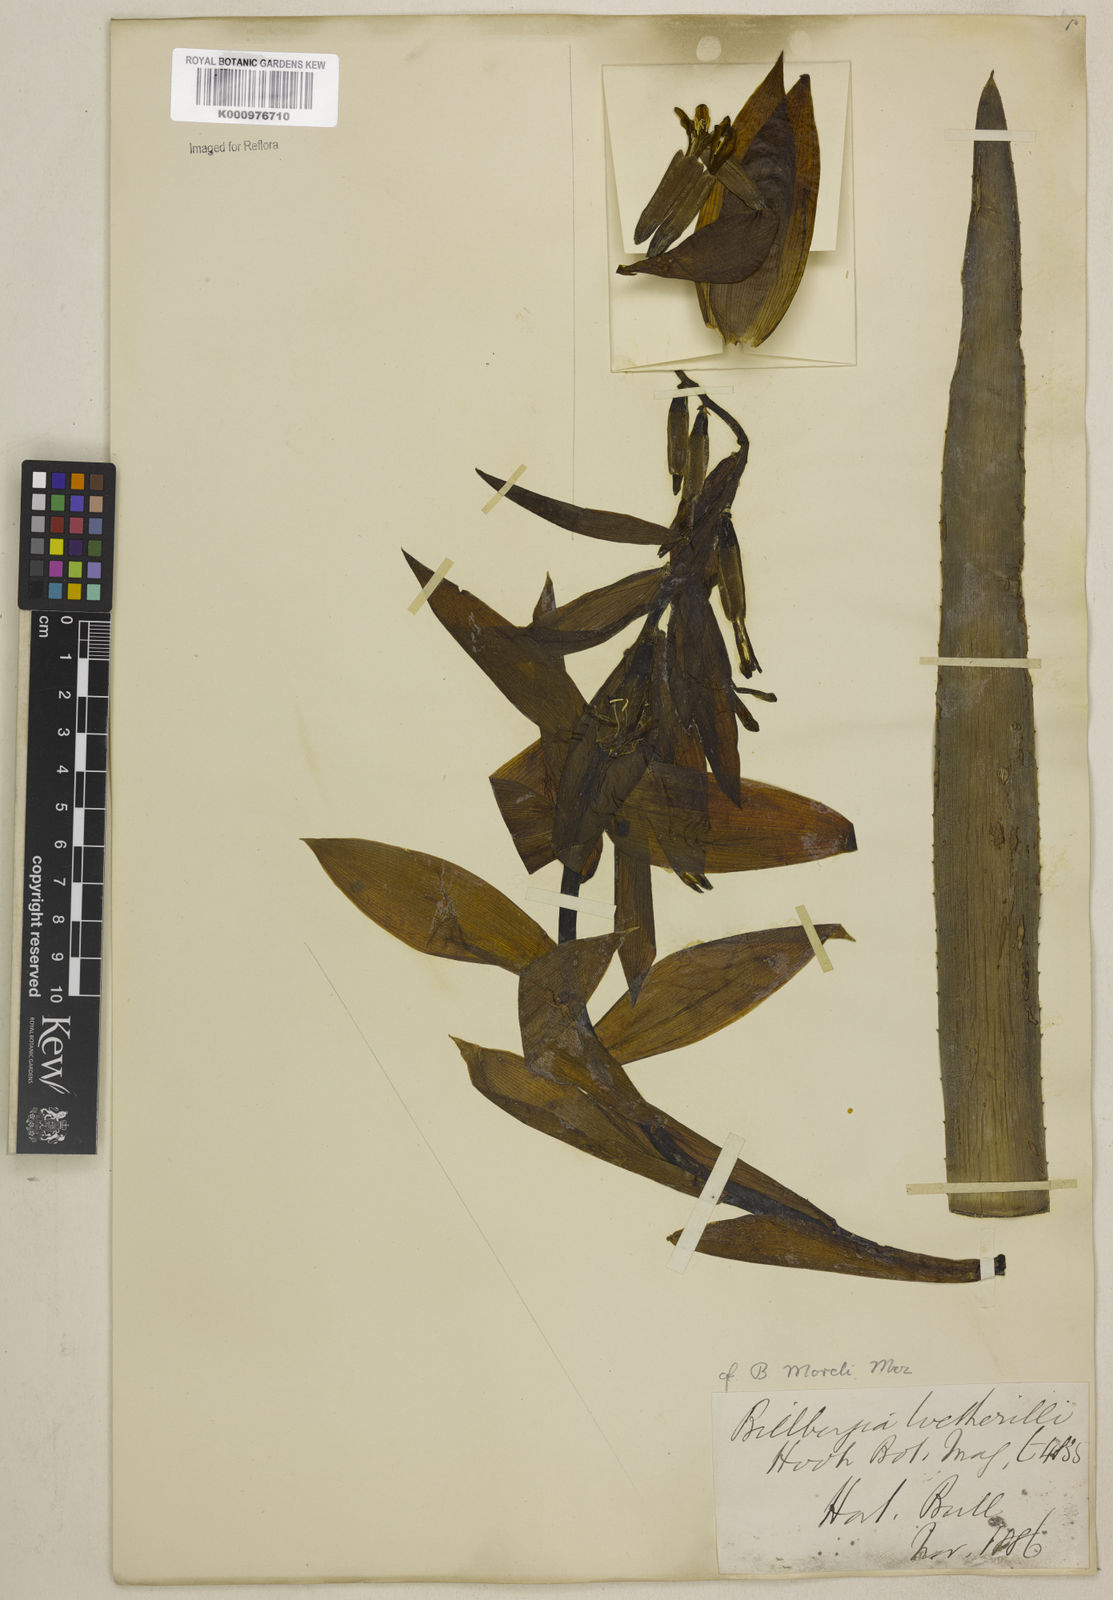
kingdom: Plantae
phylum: Tracheophyta
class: Liliopsida
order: Poales
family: Bromeliaceae
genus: Billbergia
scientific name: Billbergia morelii
